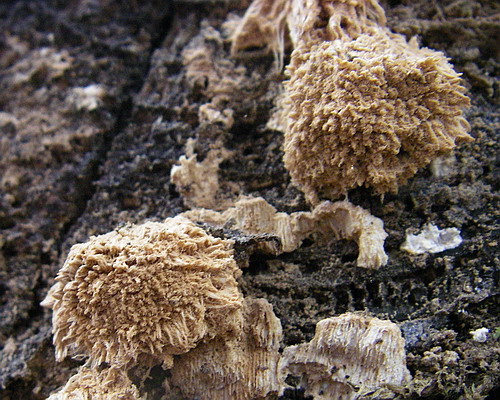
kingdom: Fungi
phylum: Basidiomycota
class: Agaricomycetes
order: Polyporales
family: Dacryobolaceae
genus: Postia
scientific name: Postia ptychogaster
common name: støvende kødporesvamp
